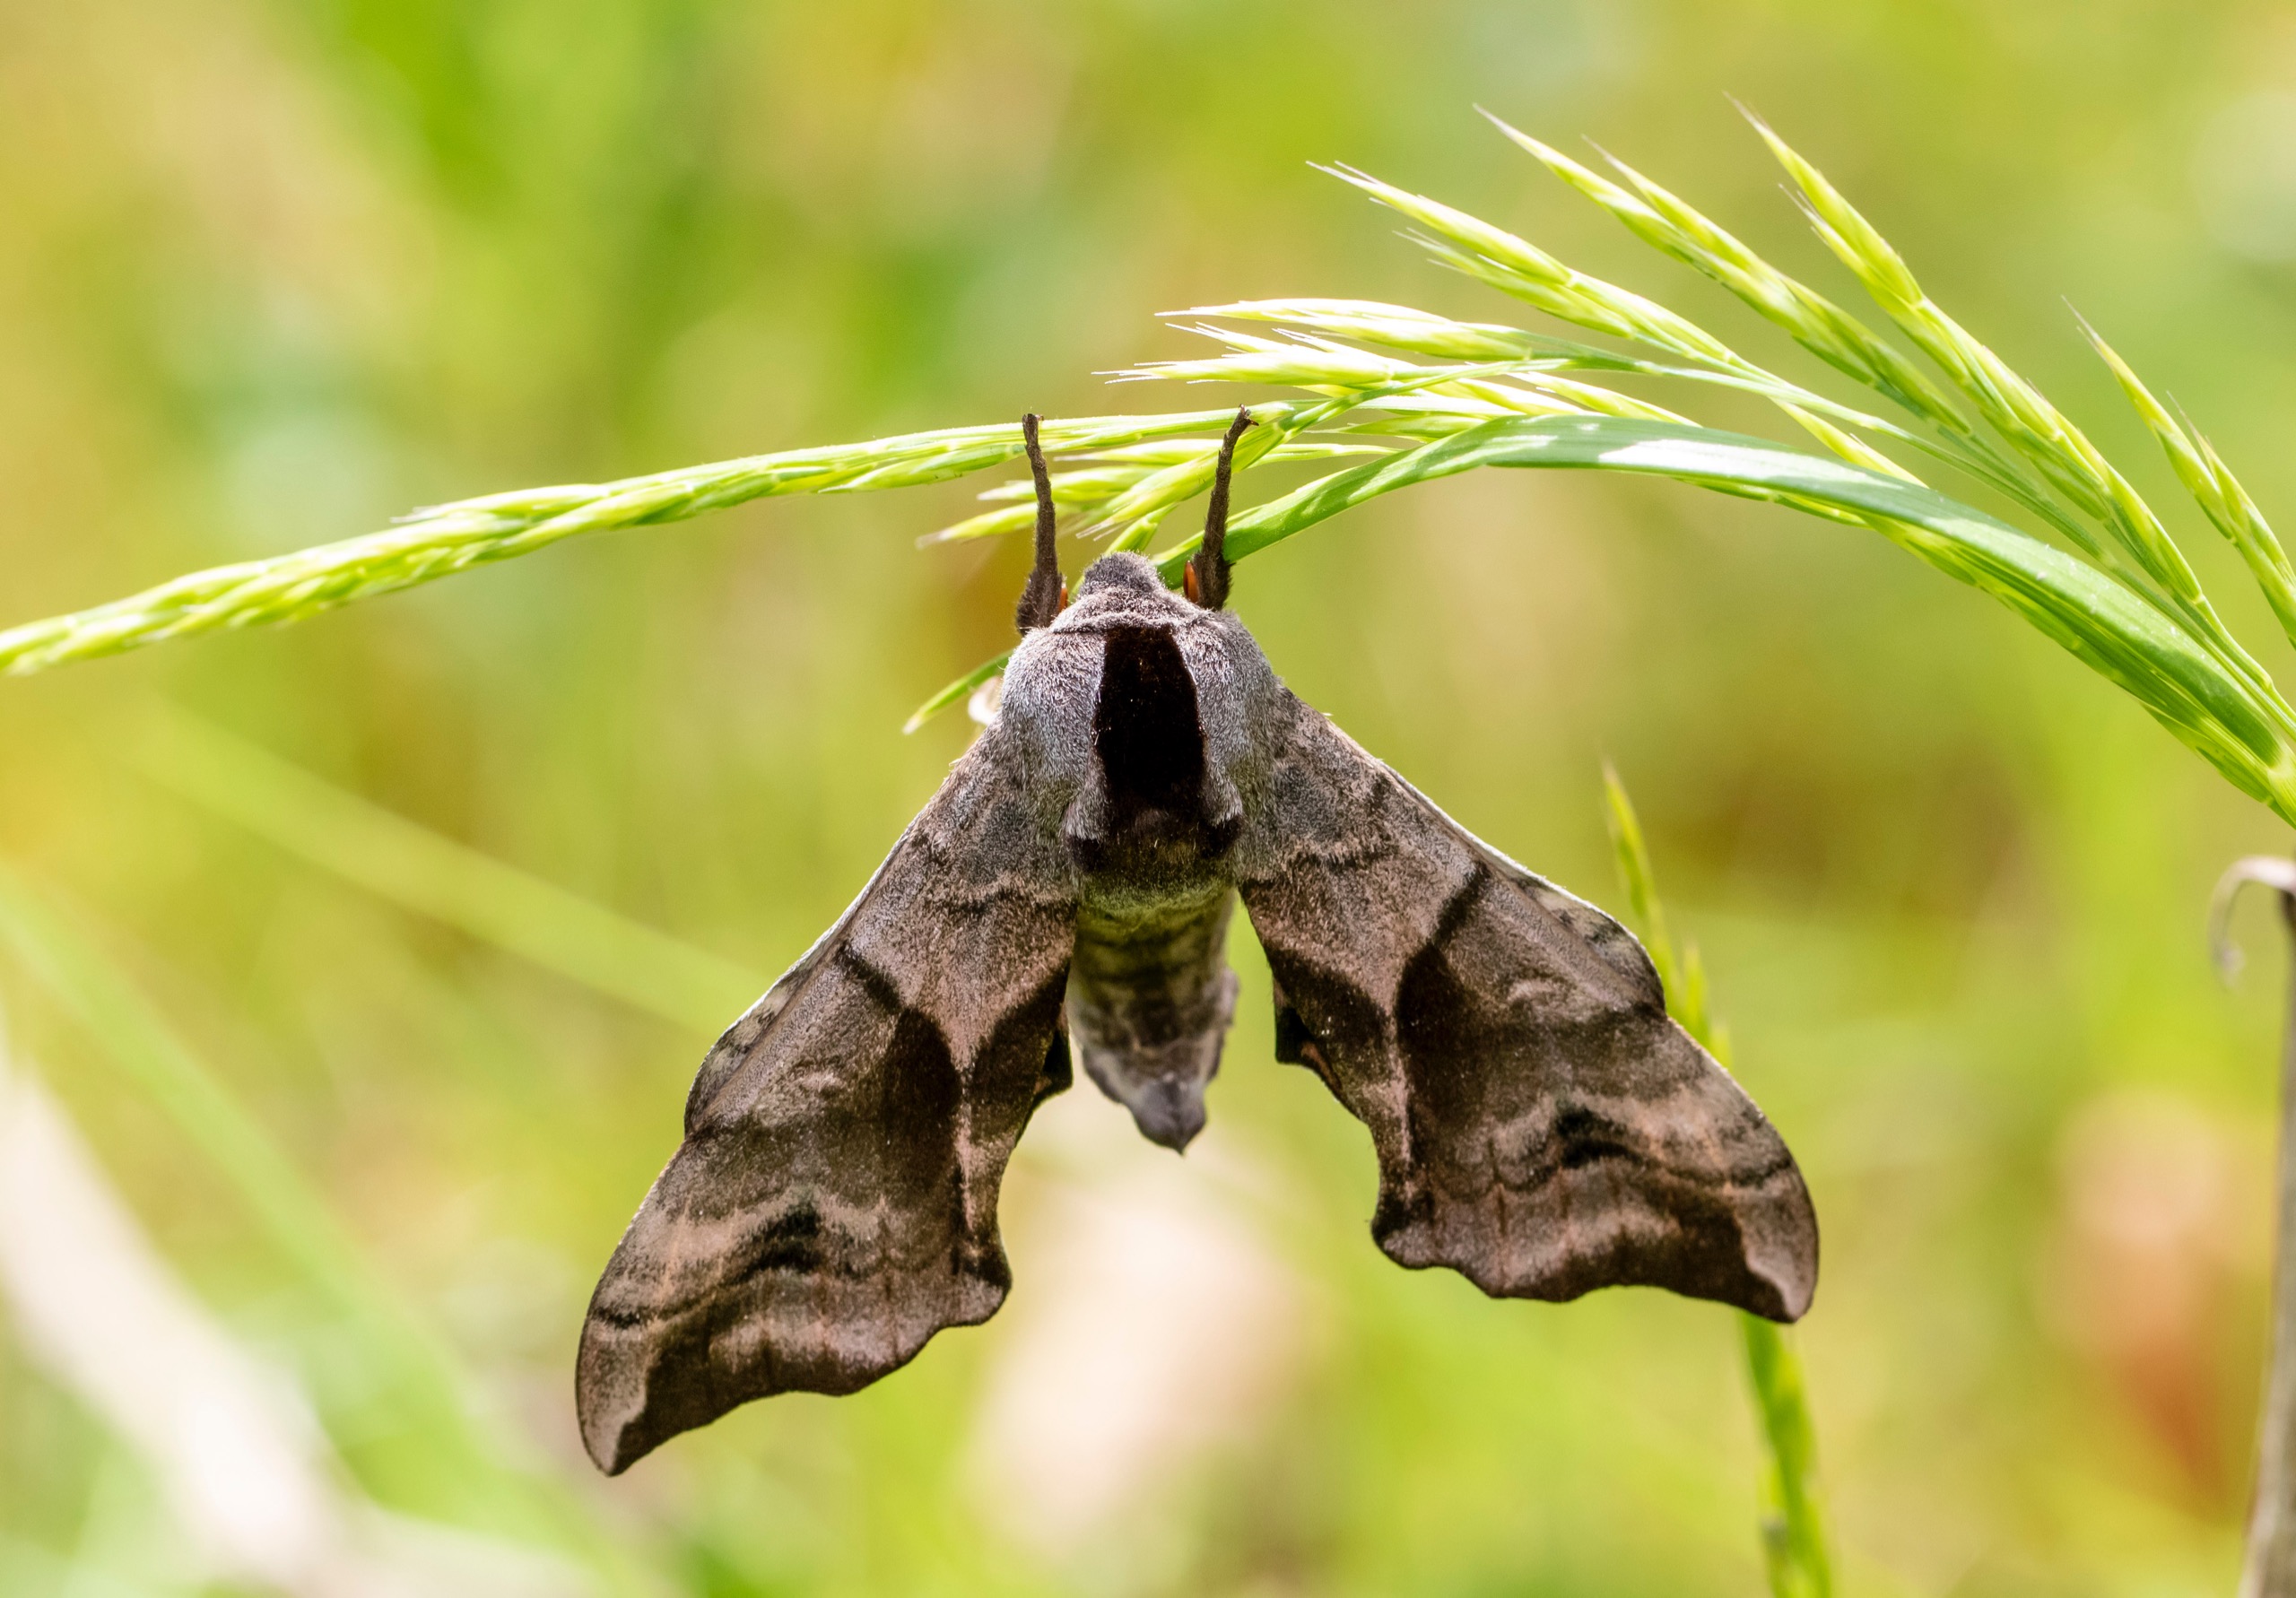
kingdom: Animalia
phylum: Arthropoda
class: Insecta
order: Lepidoptera
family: Sphingidae
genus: Smerinthus
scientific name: Smerinthus ocellata
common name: Aftenpåfugleøje
